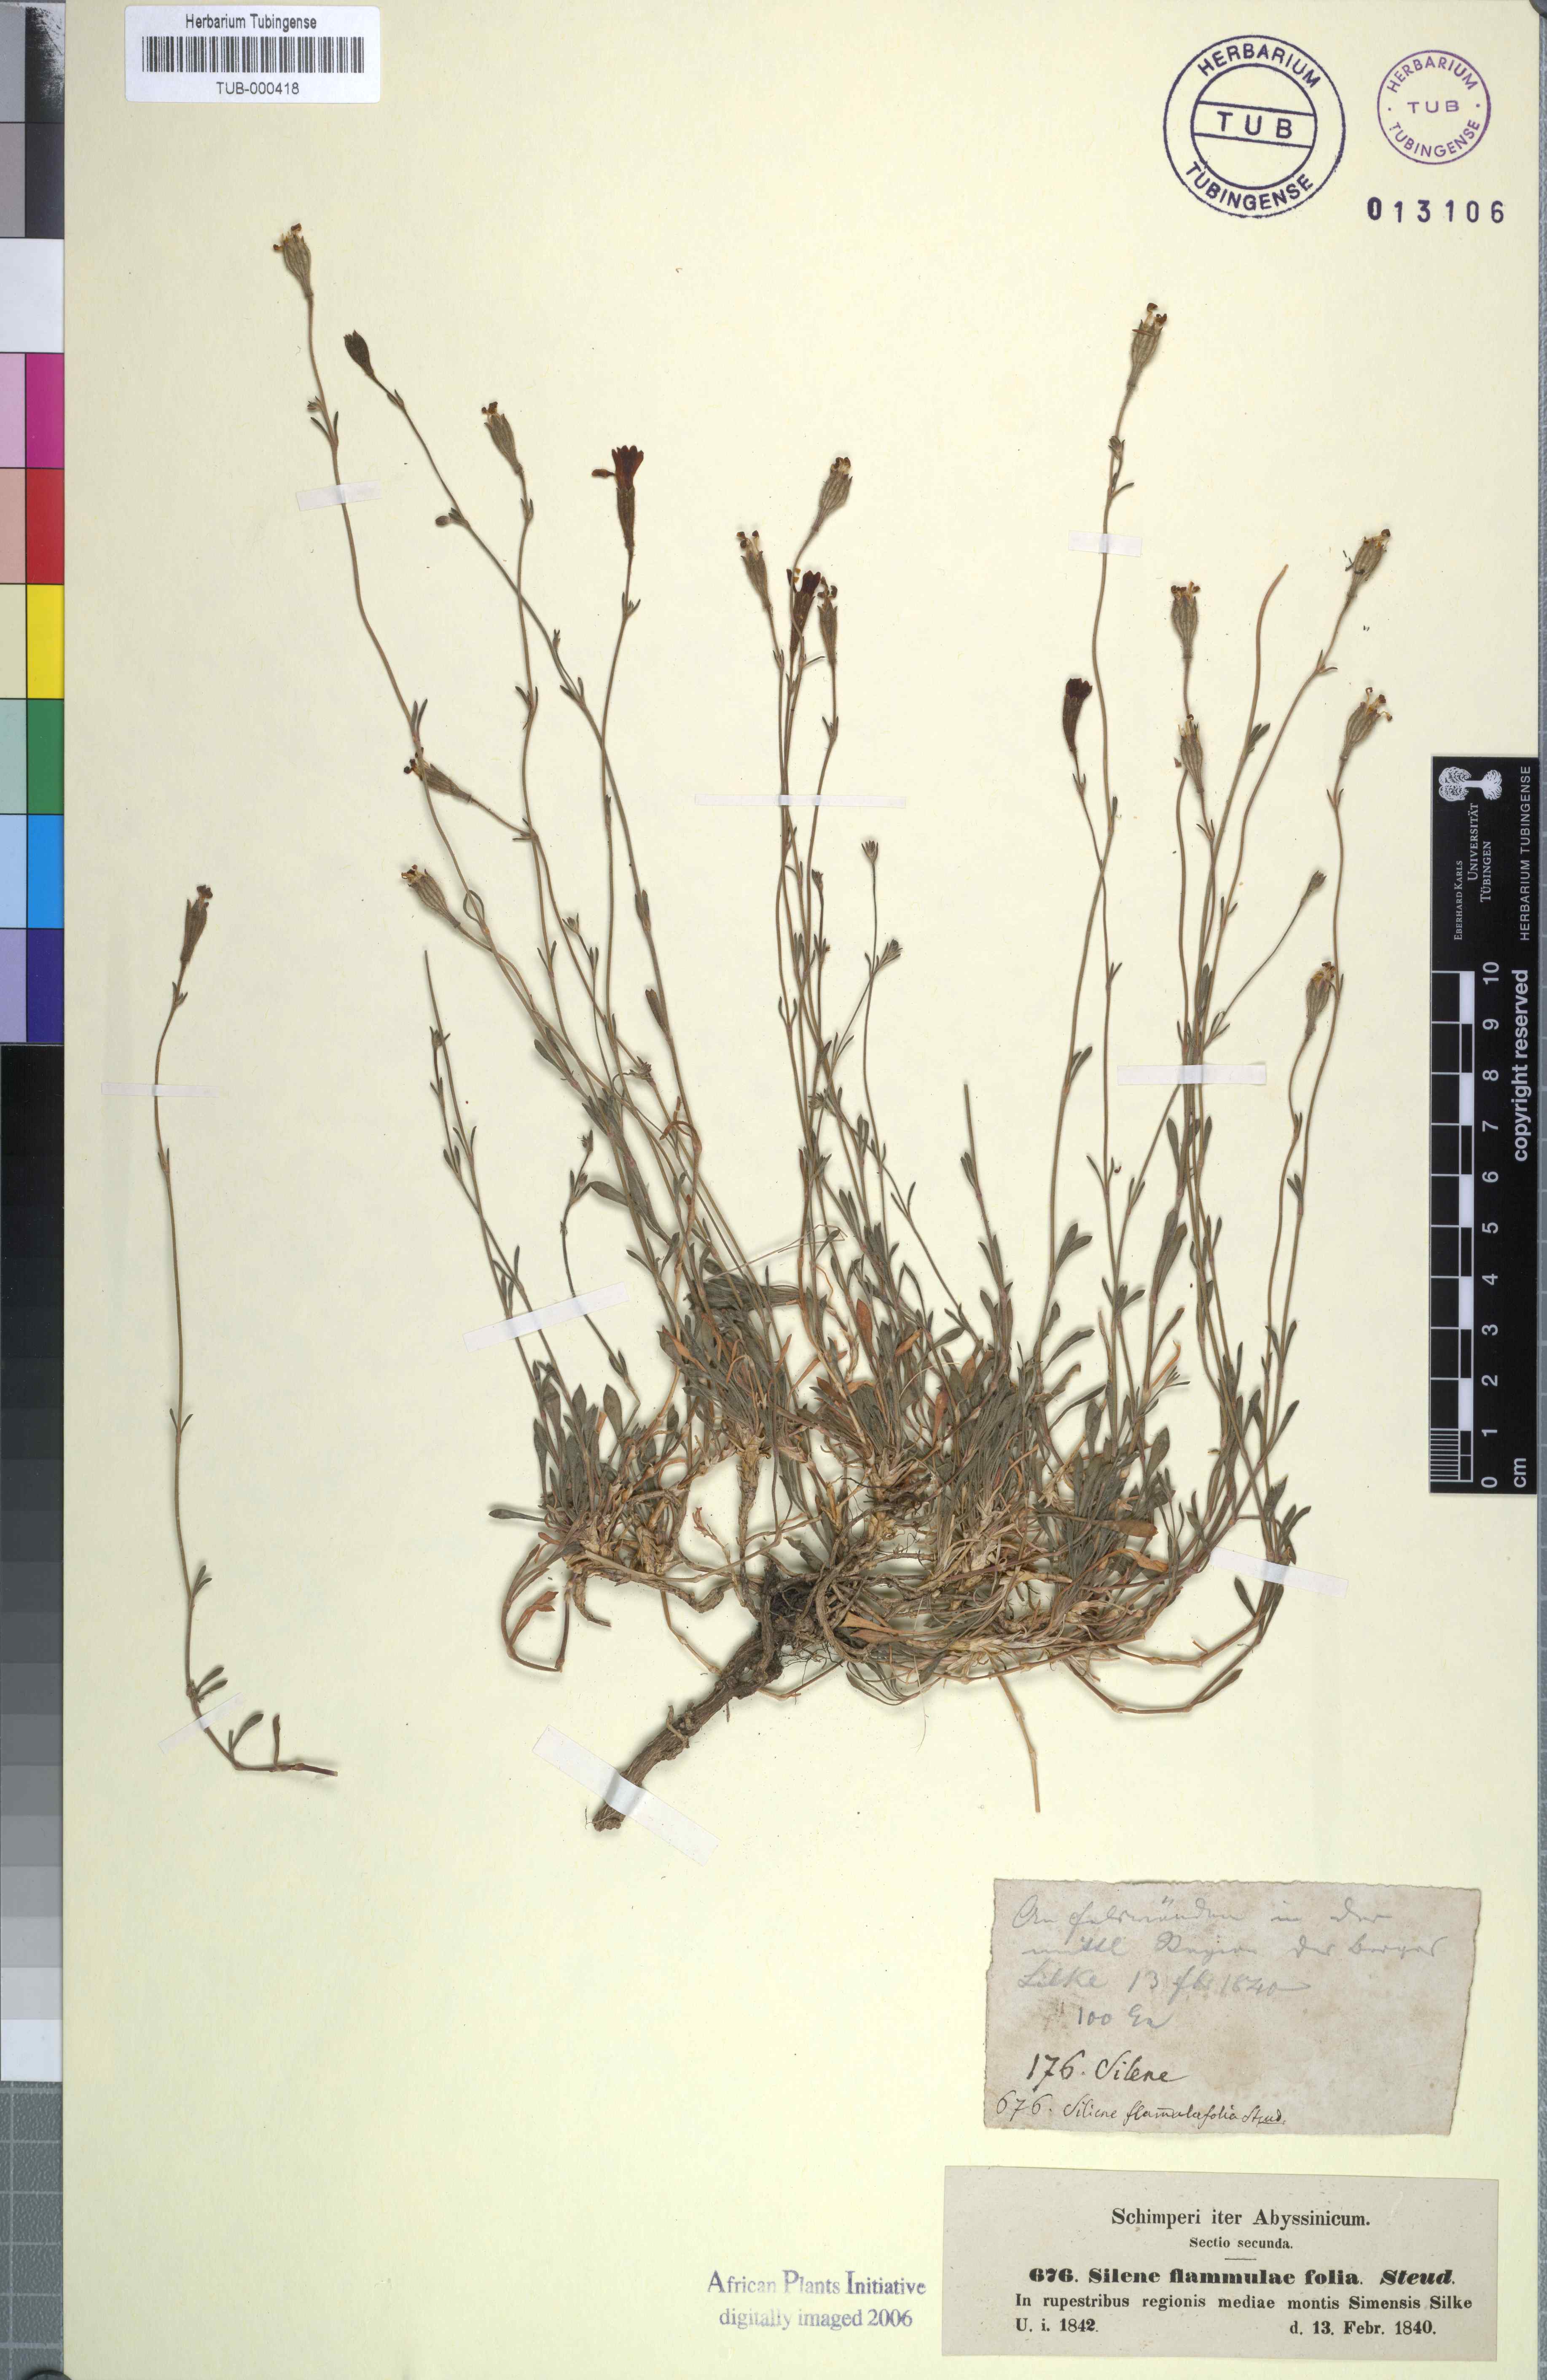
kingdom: Plantae
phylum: Tracheophyta
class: Magnoliopsida
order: Caryophyllales
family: Caryophyllaceae
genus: Silene
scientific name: Silene flammulaefolia
